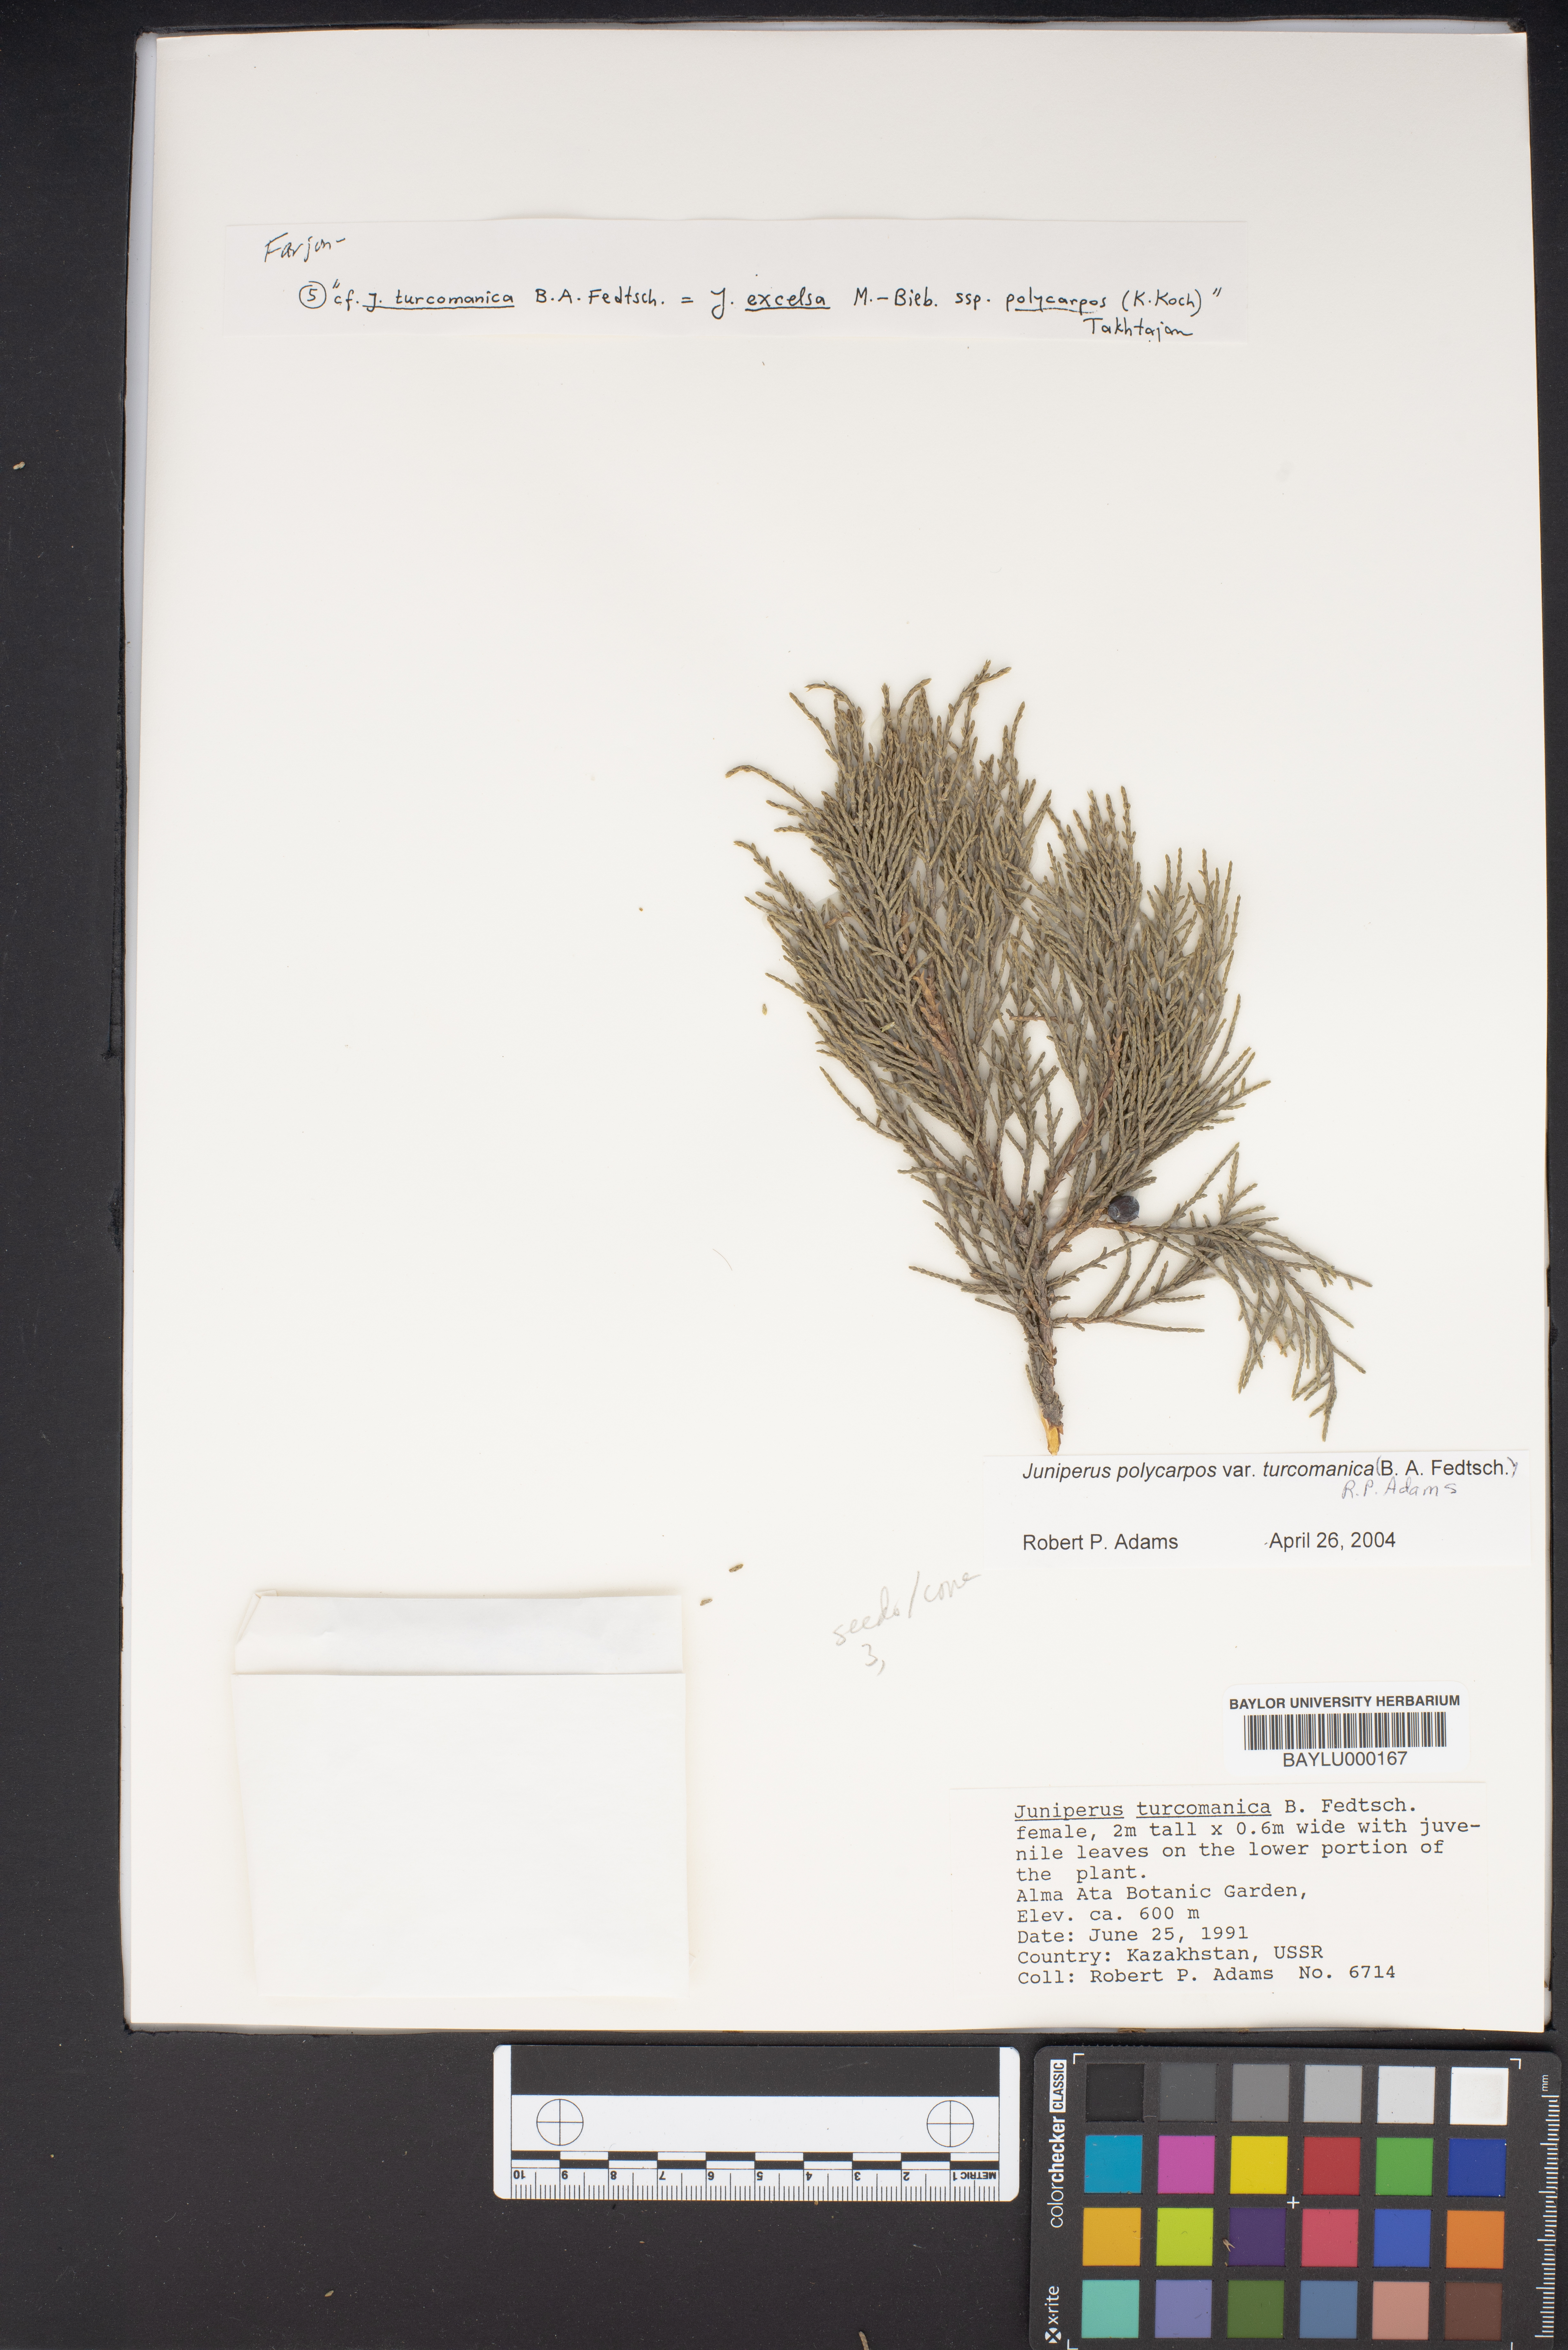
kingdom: Plantae
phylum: Tracheophyta
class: Pinopsida
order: Pinales
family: Cupressaceae
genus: Juniperus
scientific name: Juniperus excelsa
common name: Crimean juniper
